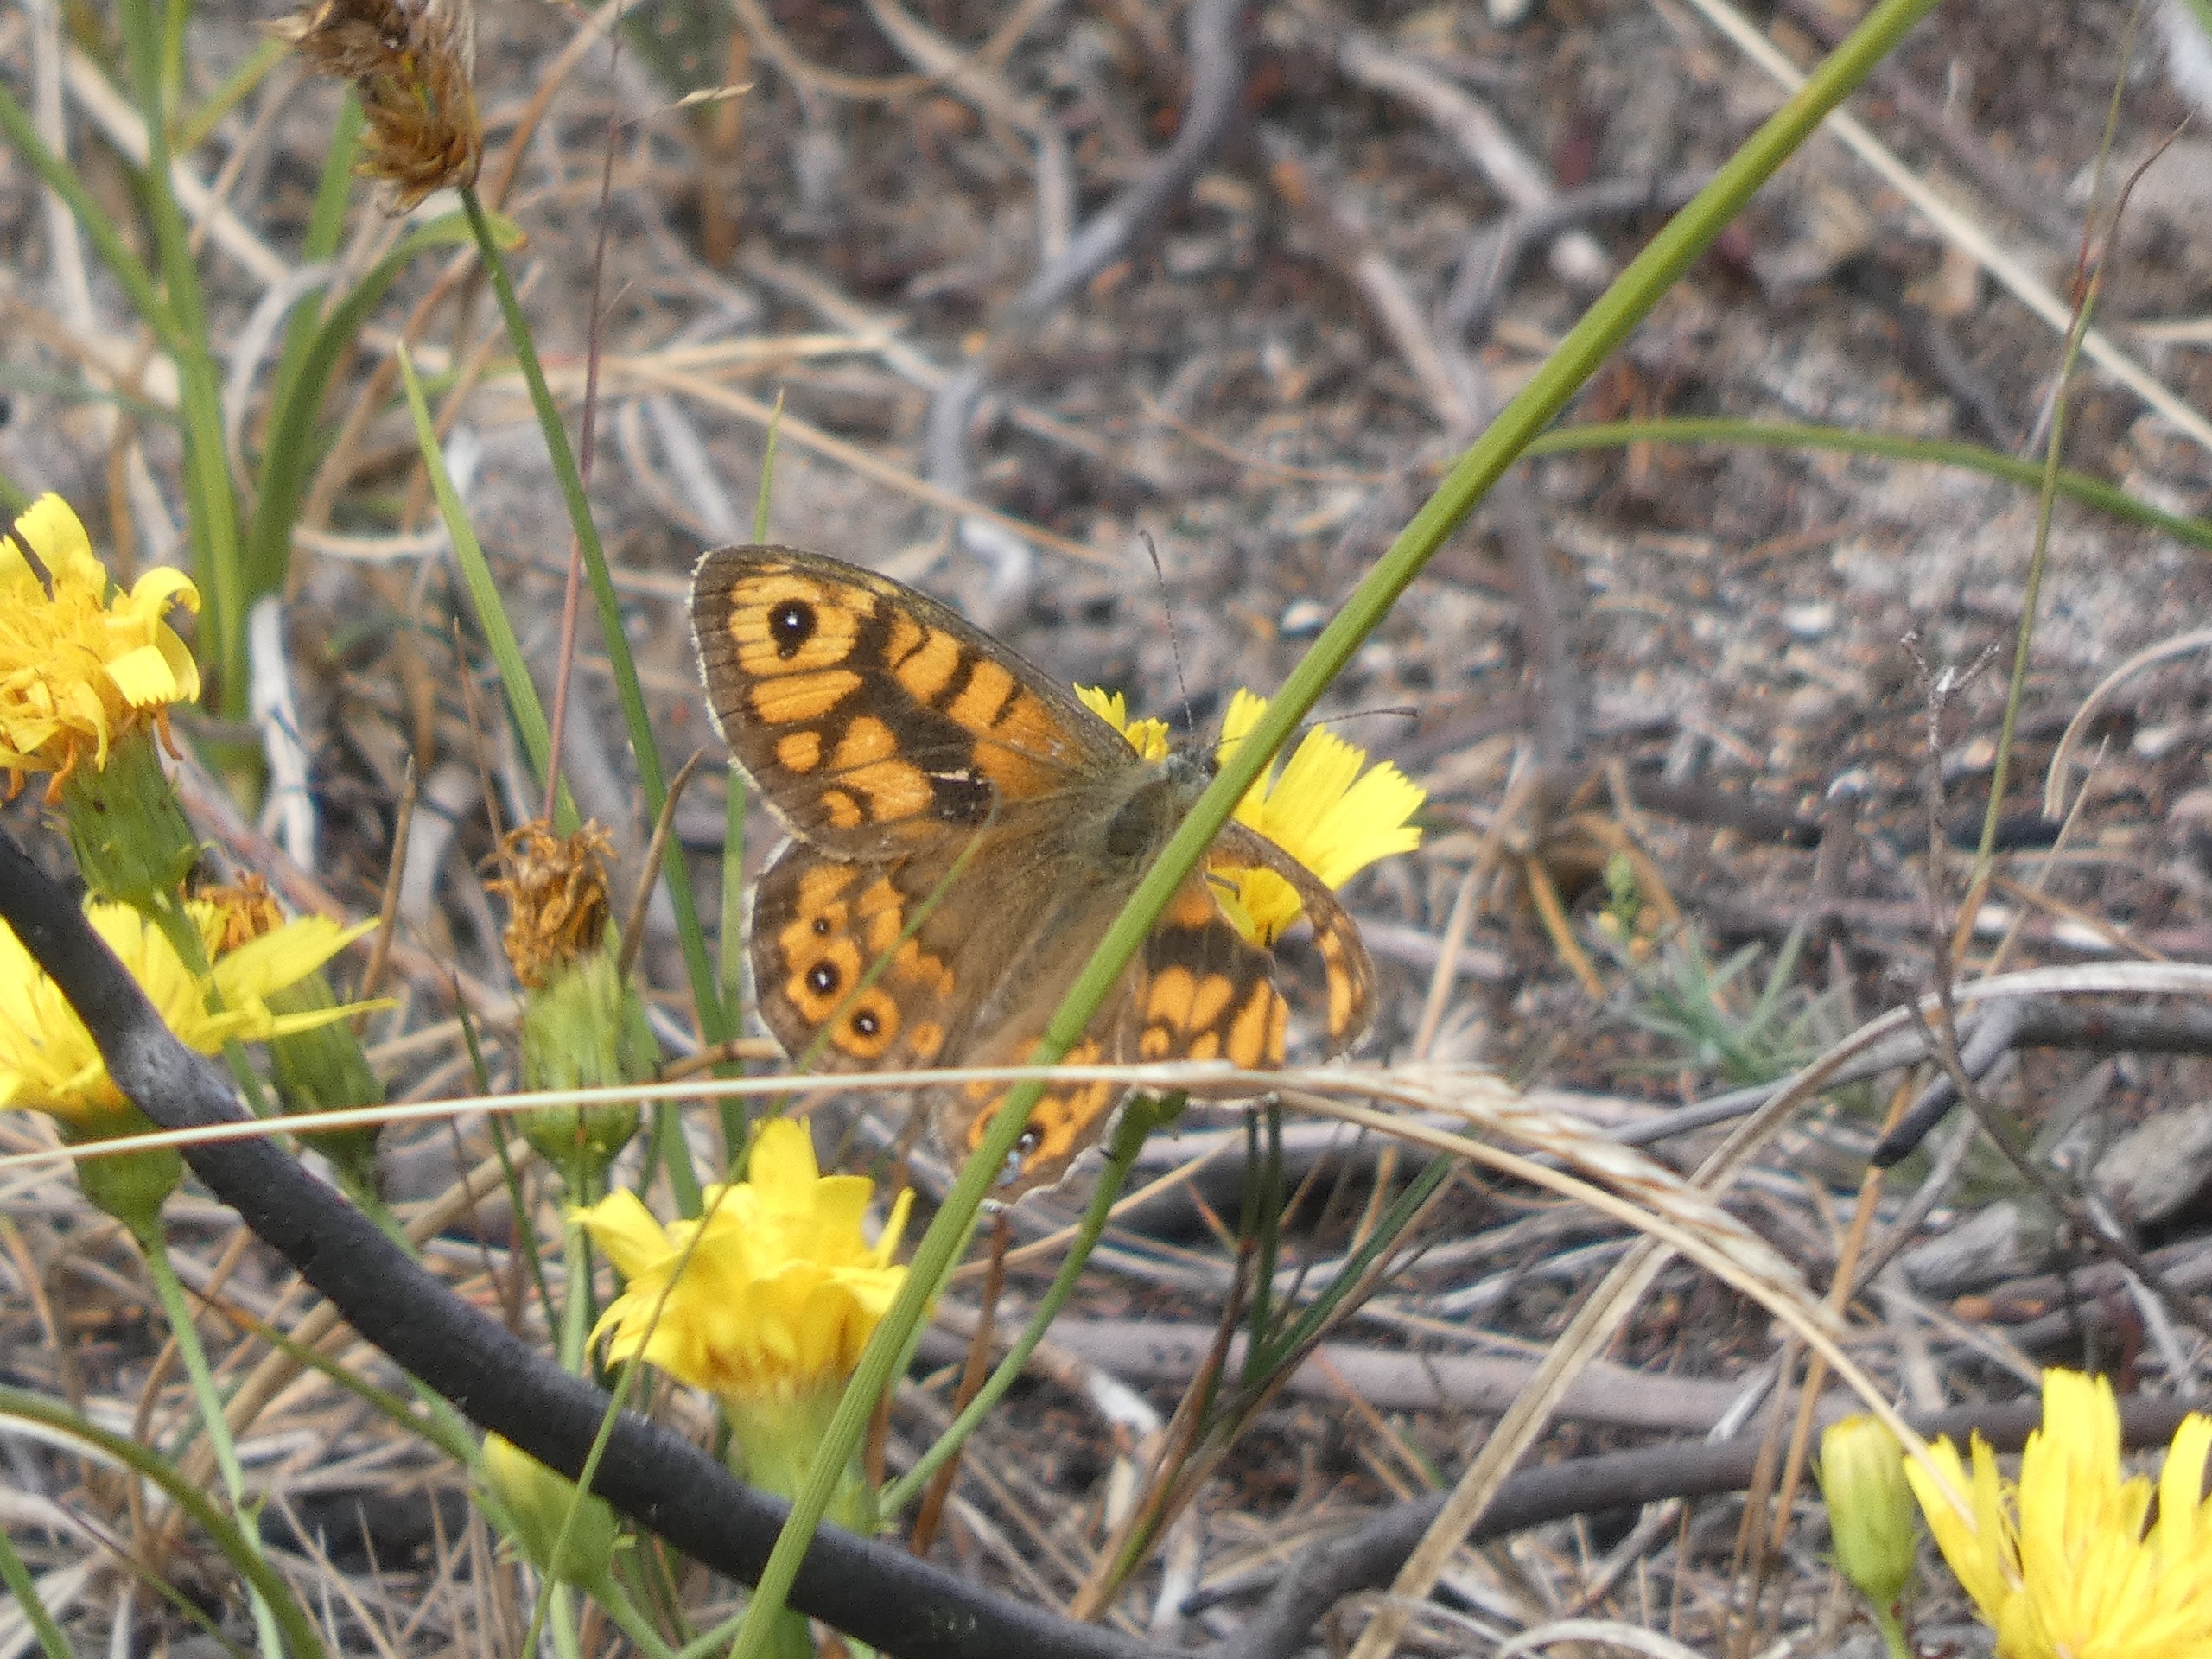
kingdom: Animalia
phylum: Arthropoda
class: Insecta
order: Lepidoptera
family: Nymphalidae
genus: Pararge
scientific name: Pararge Lasiommata megera
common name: Vejrandøje
